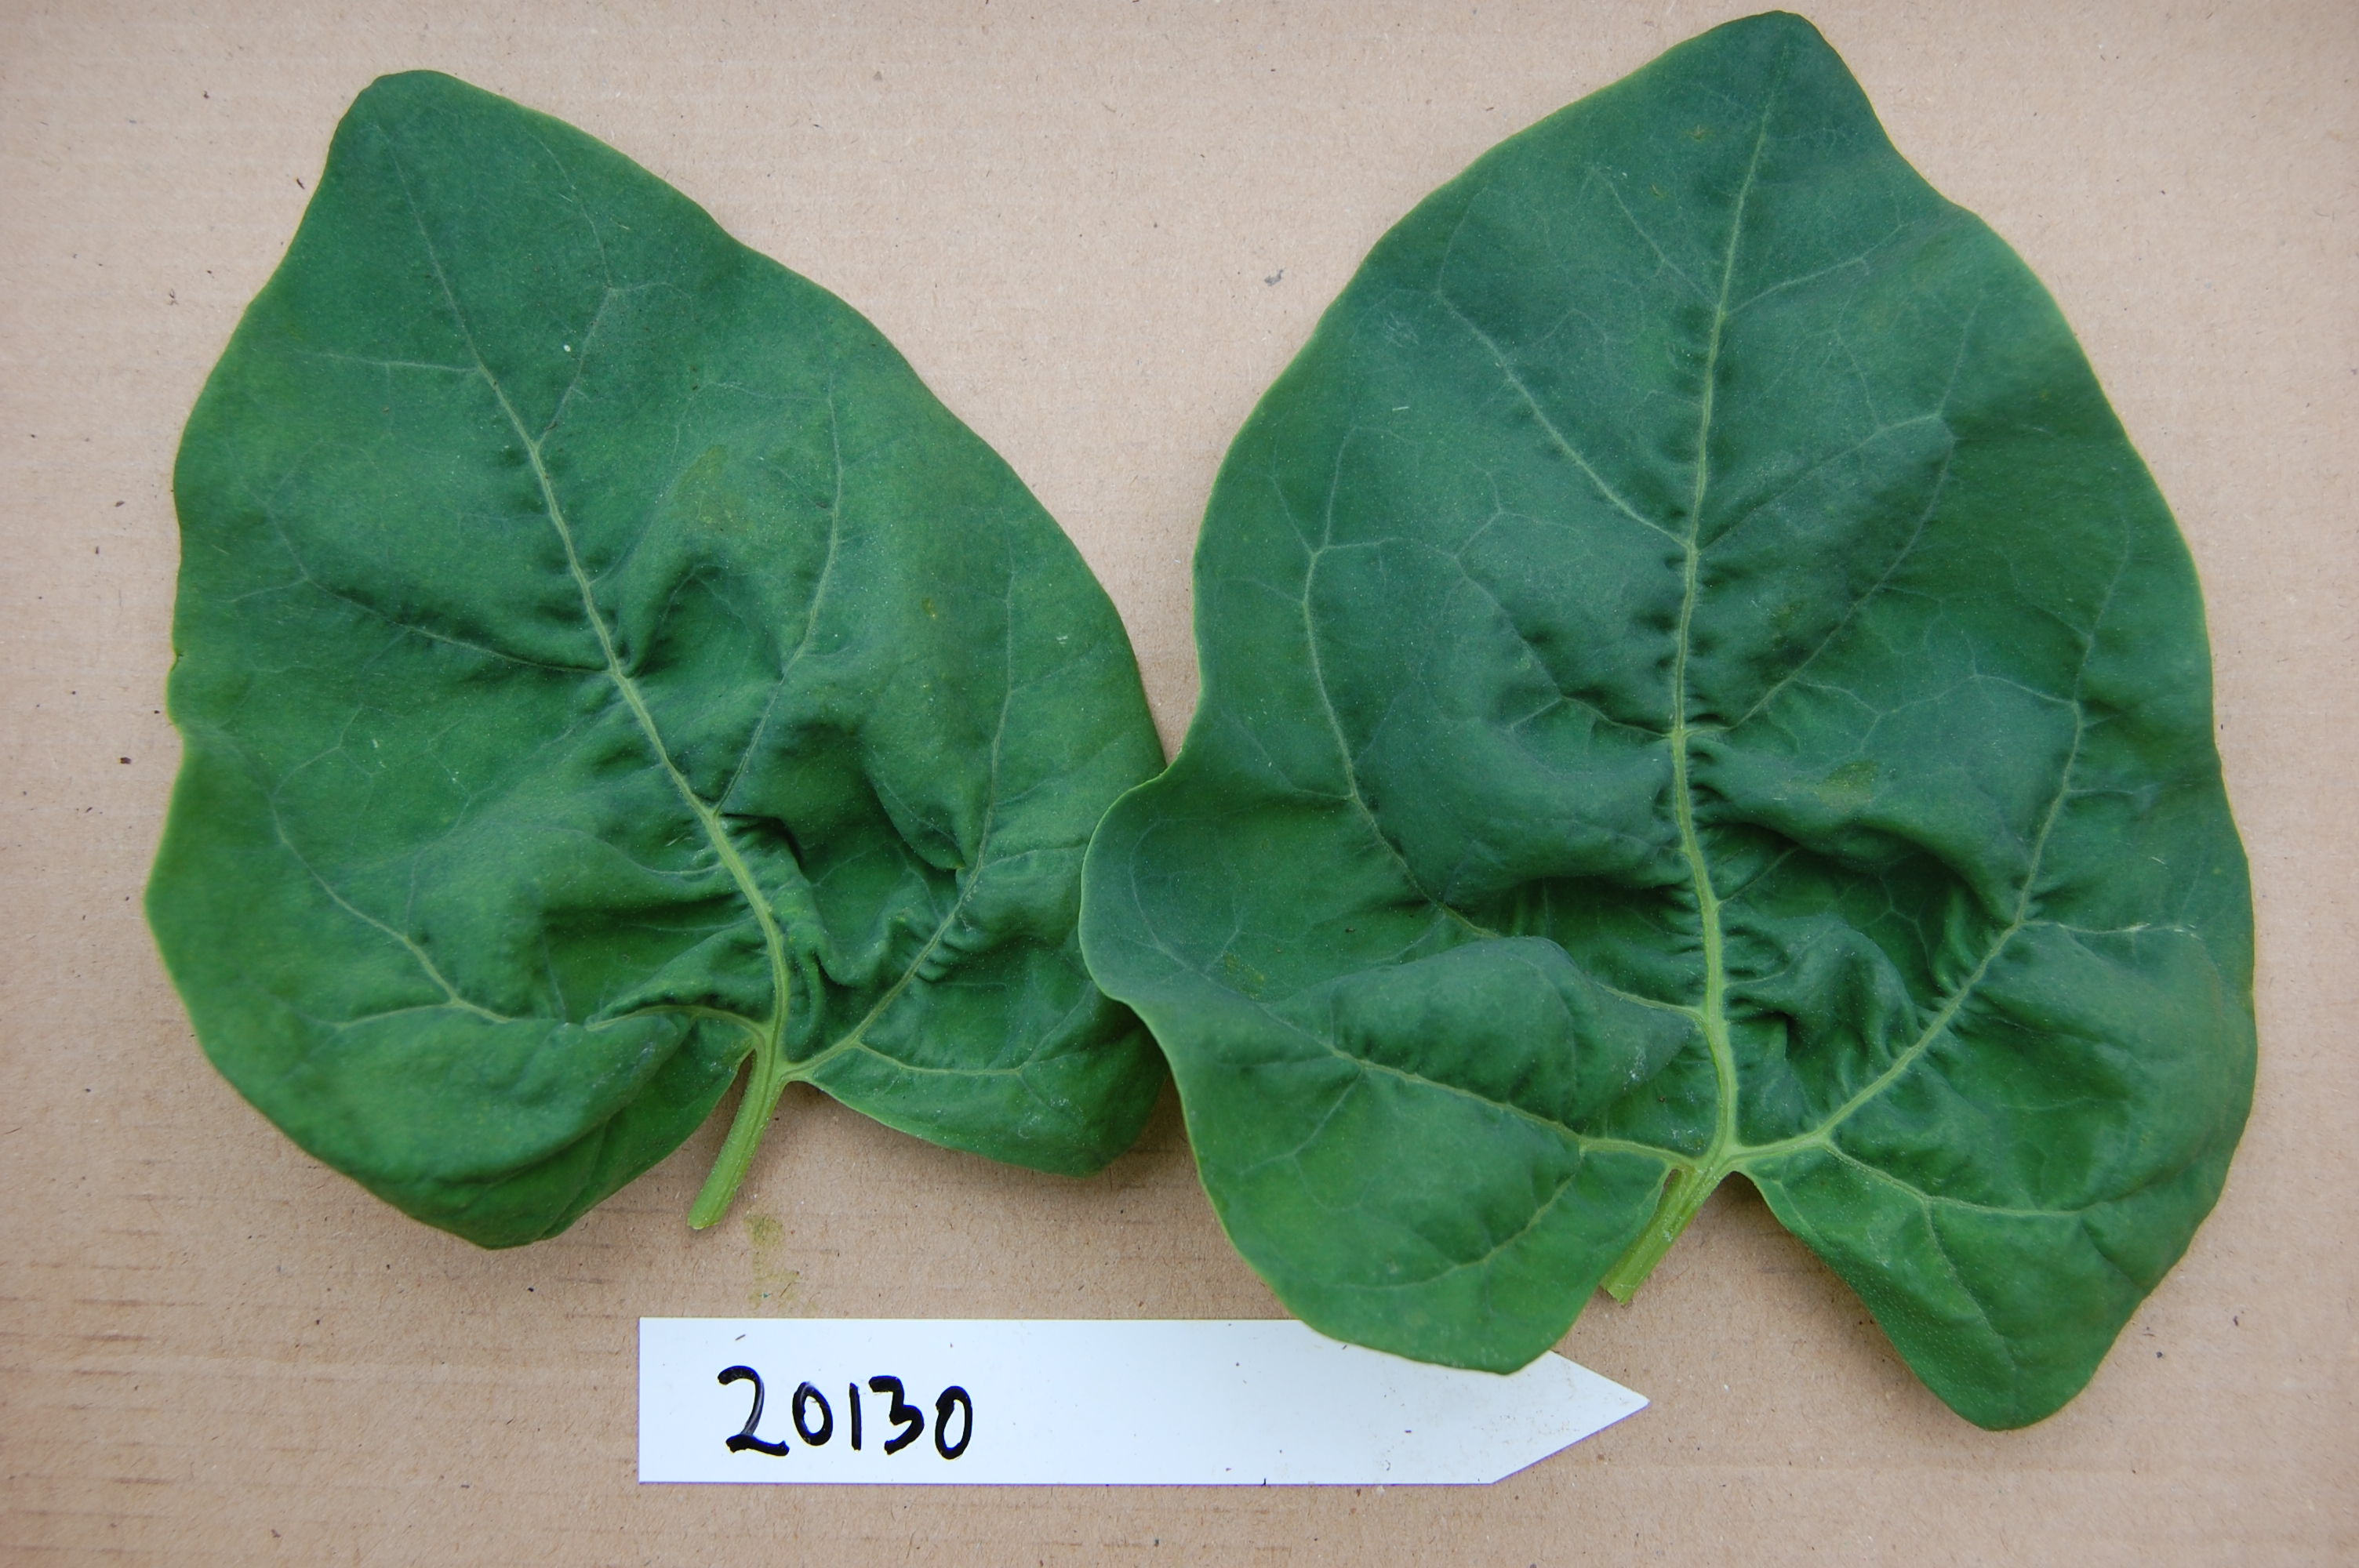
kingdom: Plantae
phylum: Tracheophyta
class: Magnoliopsida
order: Caryophyllales
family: Amaranthaceae
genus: Atriplex
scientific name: Atriplex hortensis
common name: Garden orache
